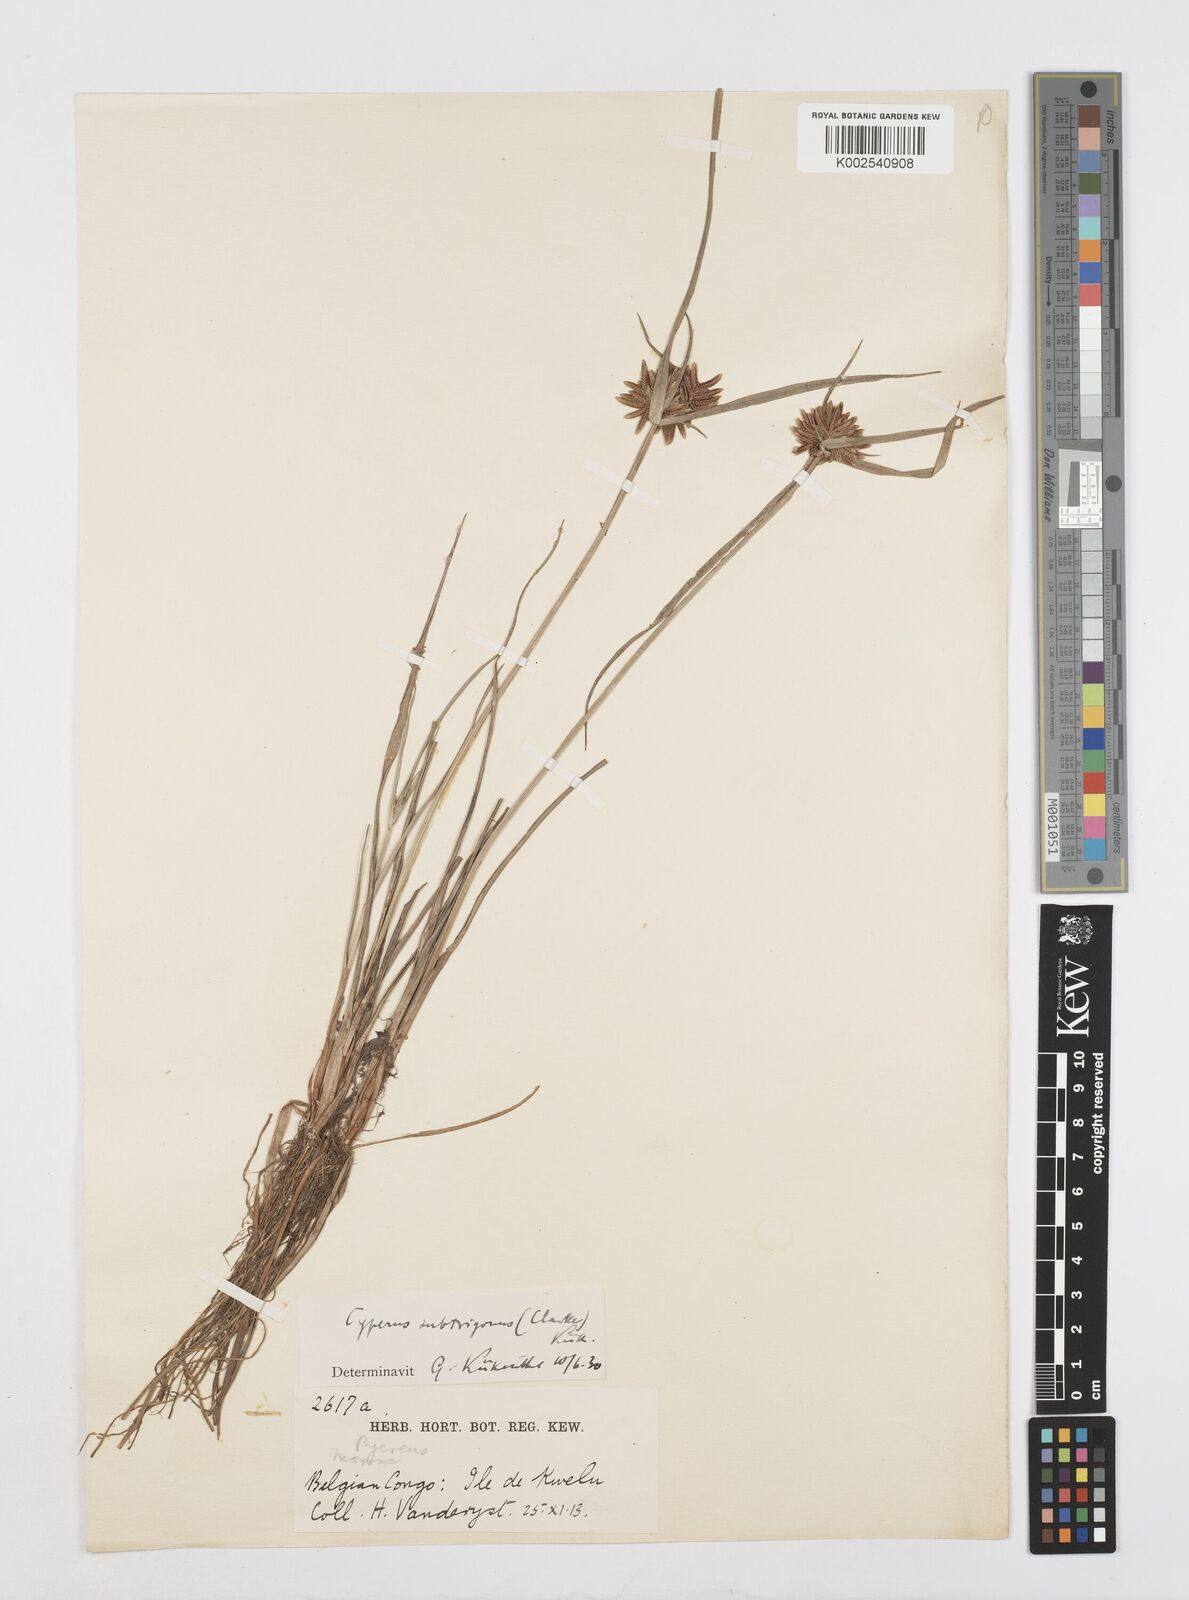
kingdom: Plantae
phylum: Tracheophyta
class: Liliopsida
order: Poales
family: Cyperaceae
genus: Cyperus
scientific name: Cyperus subtrigonus
